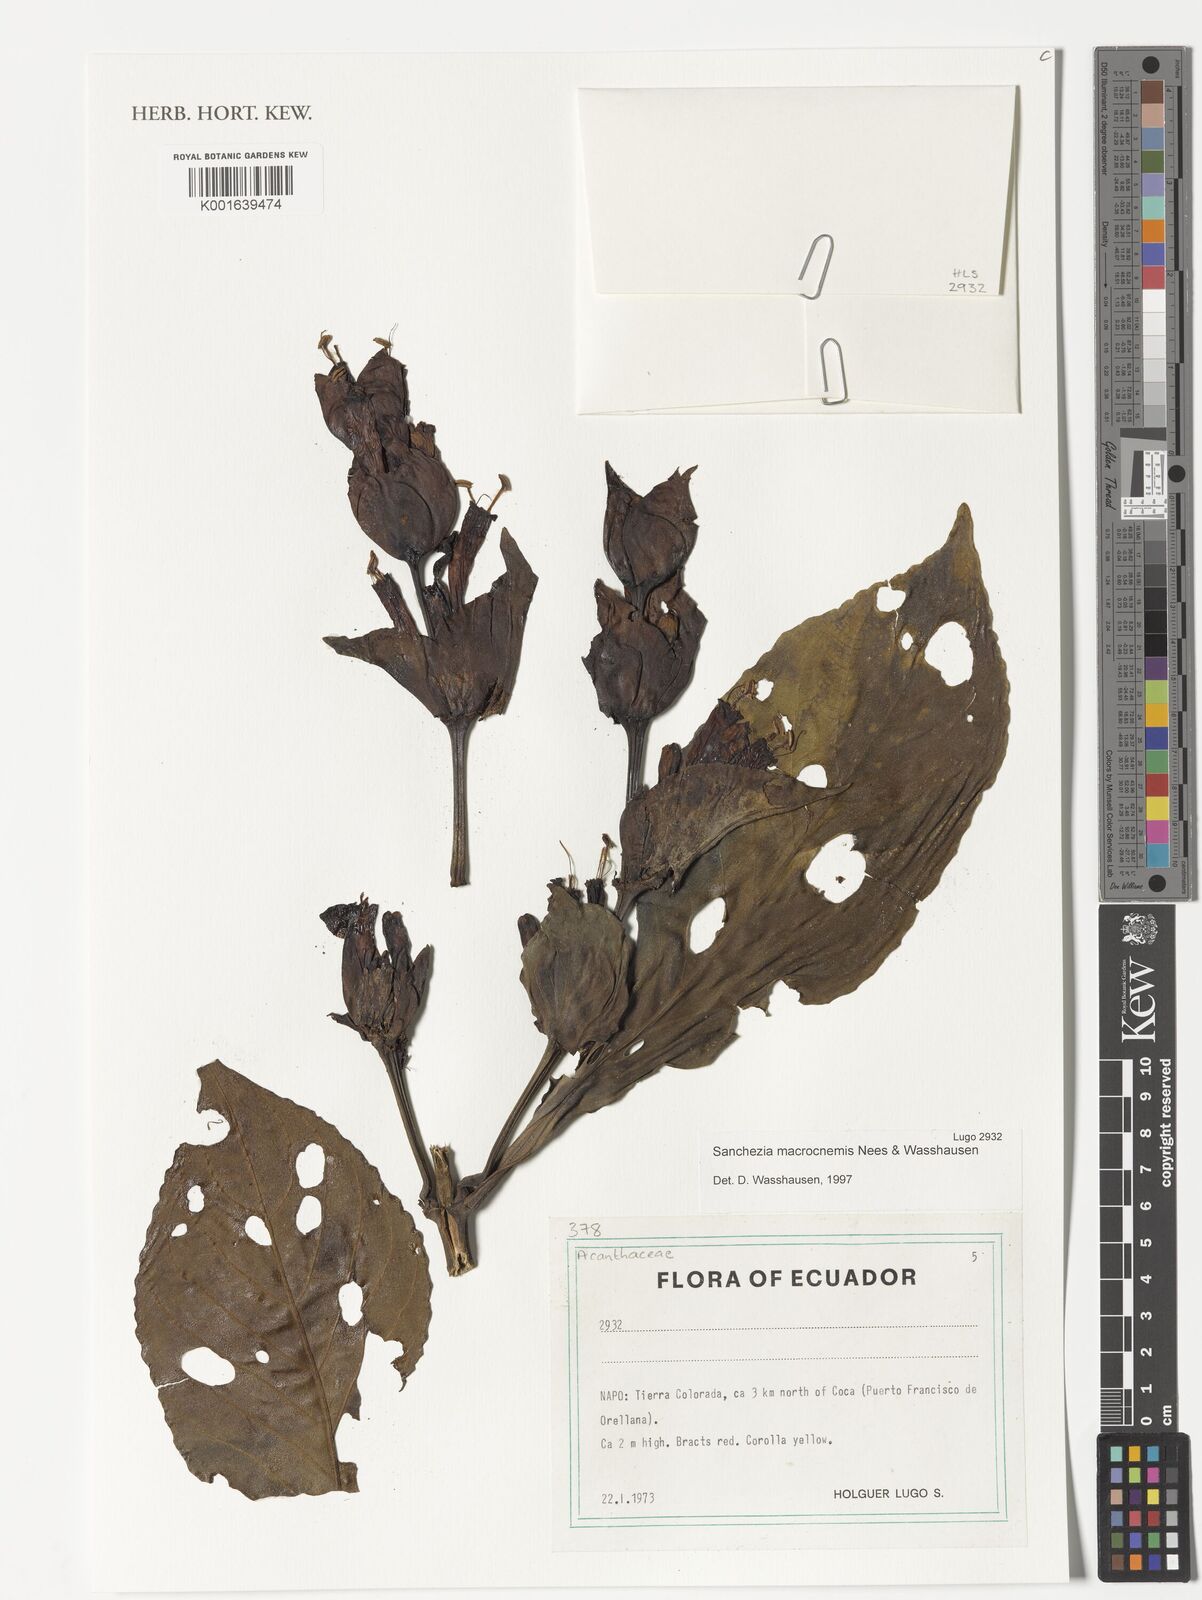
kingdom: Plantae
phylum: Tracheophyta
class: Magnoliopsida
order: Lamiales
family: Acanthaceae
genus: Sanchezia
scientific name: Sanchezia macrocnemis
